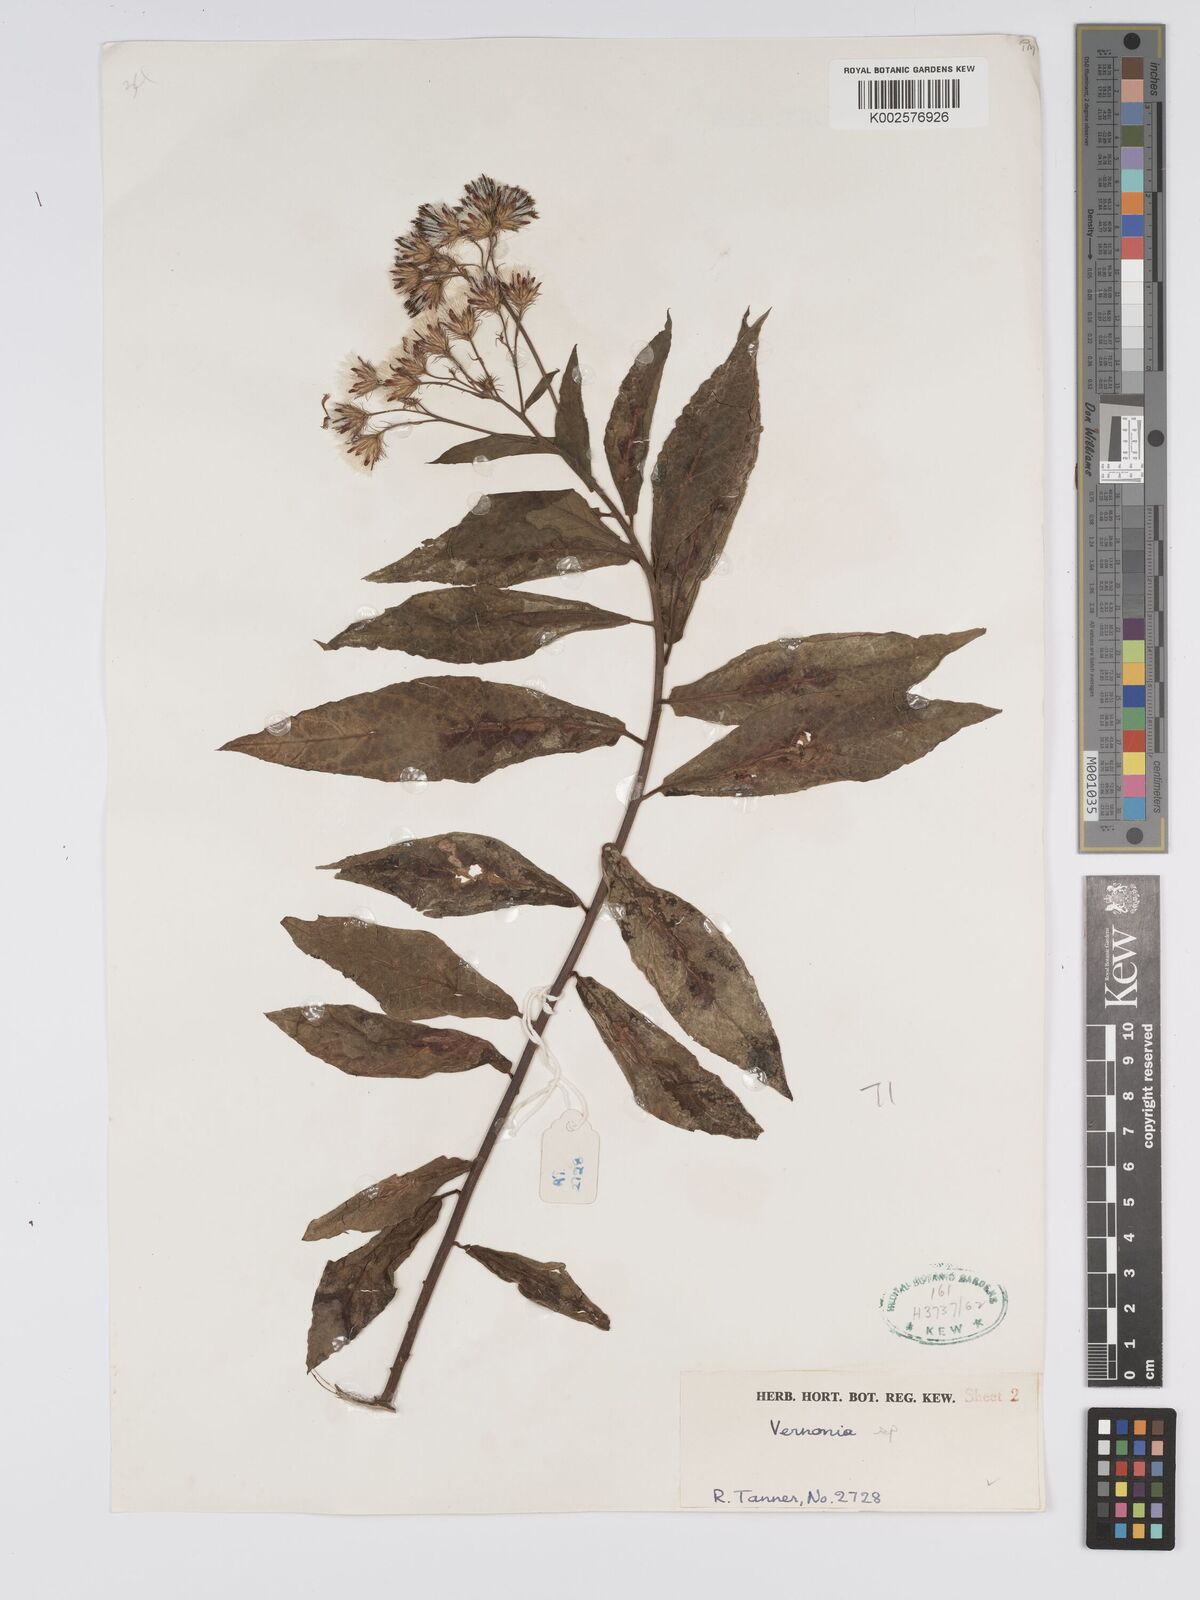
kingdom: Plantae
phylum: Tracheophyta
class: Magnoliopsida
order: Asterales
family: Asteraceae
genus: Jeffreycia
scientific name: Jeffreycia amaniensis
